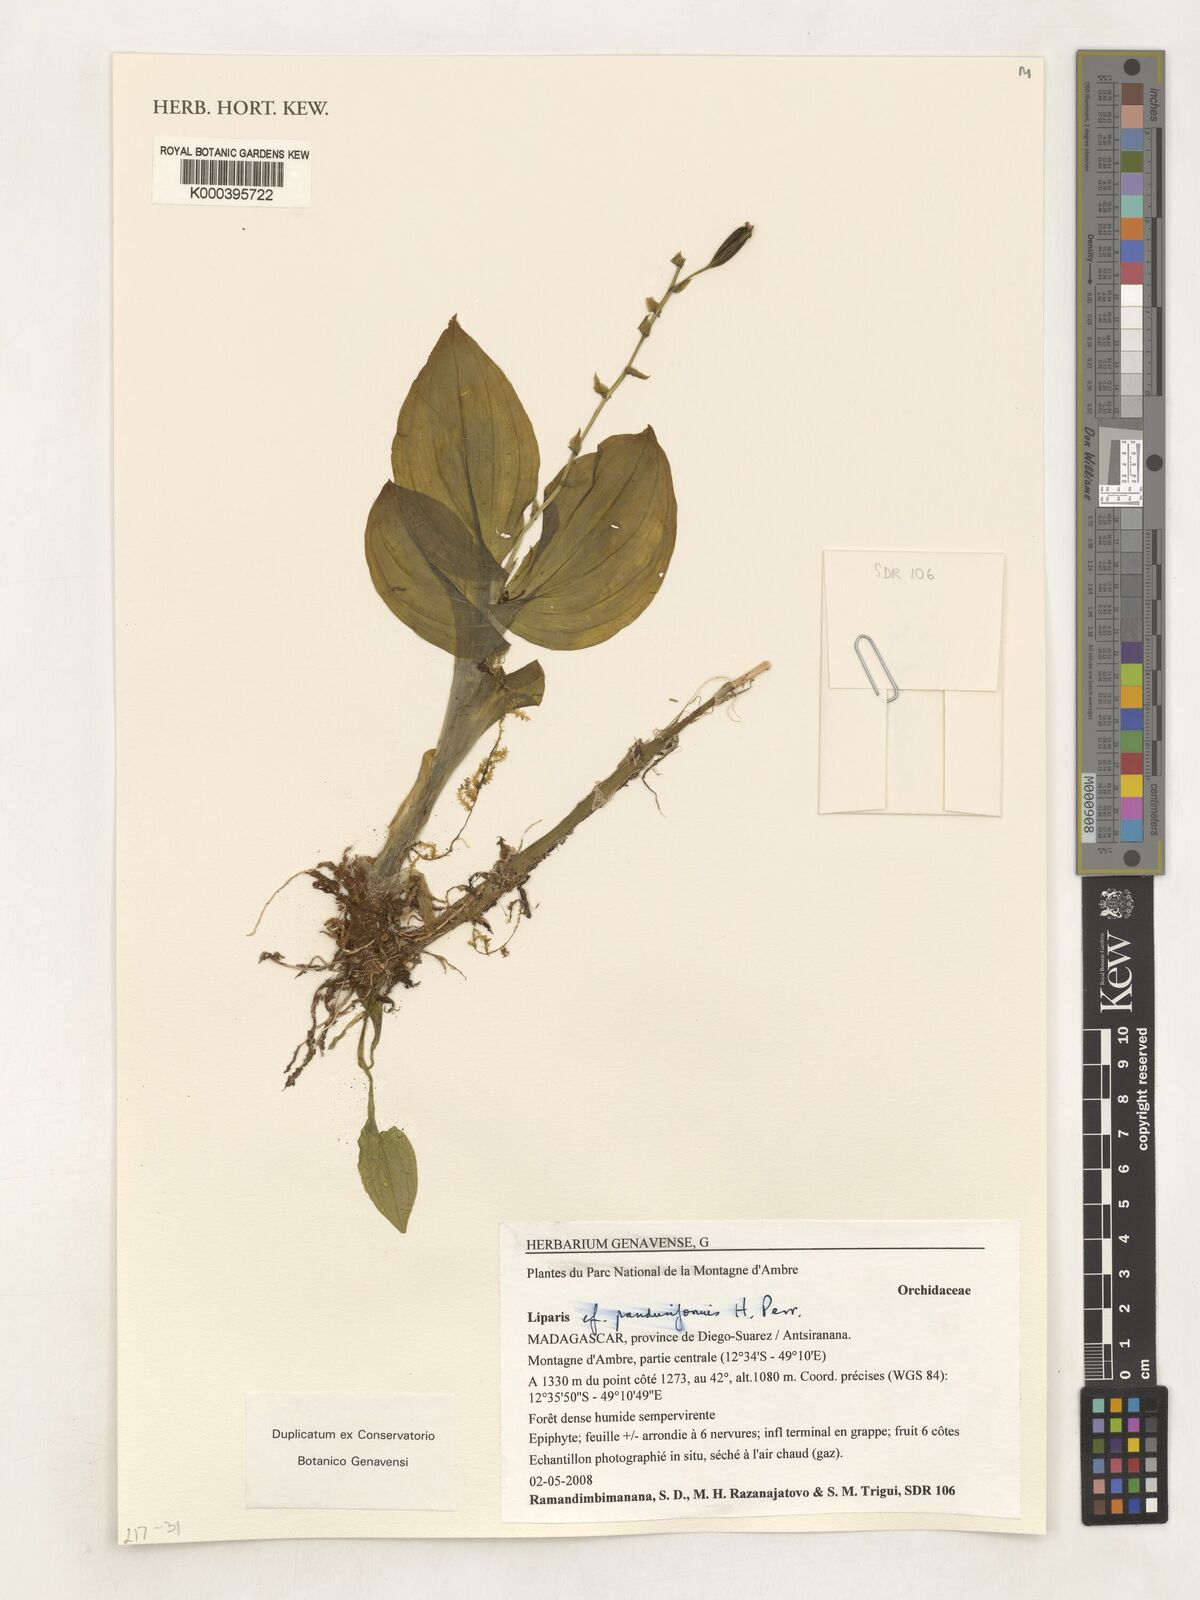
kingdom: Plantae
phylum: Tracheophyta
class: Liliopsida
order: Asparagales
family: Orchidaceae
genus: Liparis
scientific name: Liparis sambiranoensis
